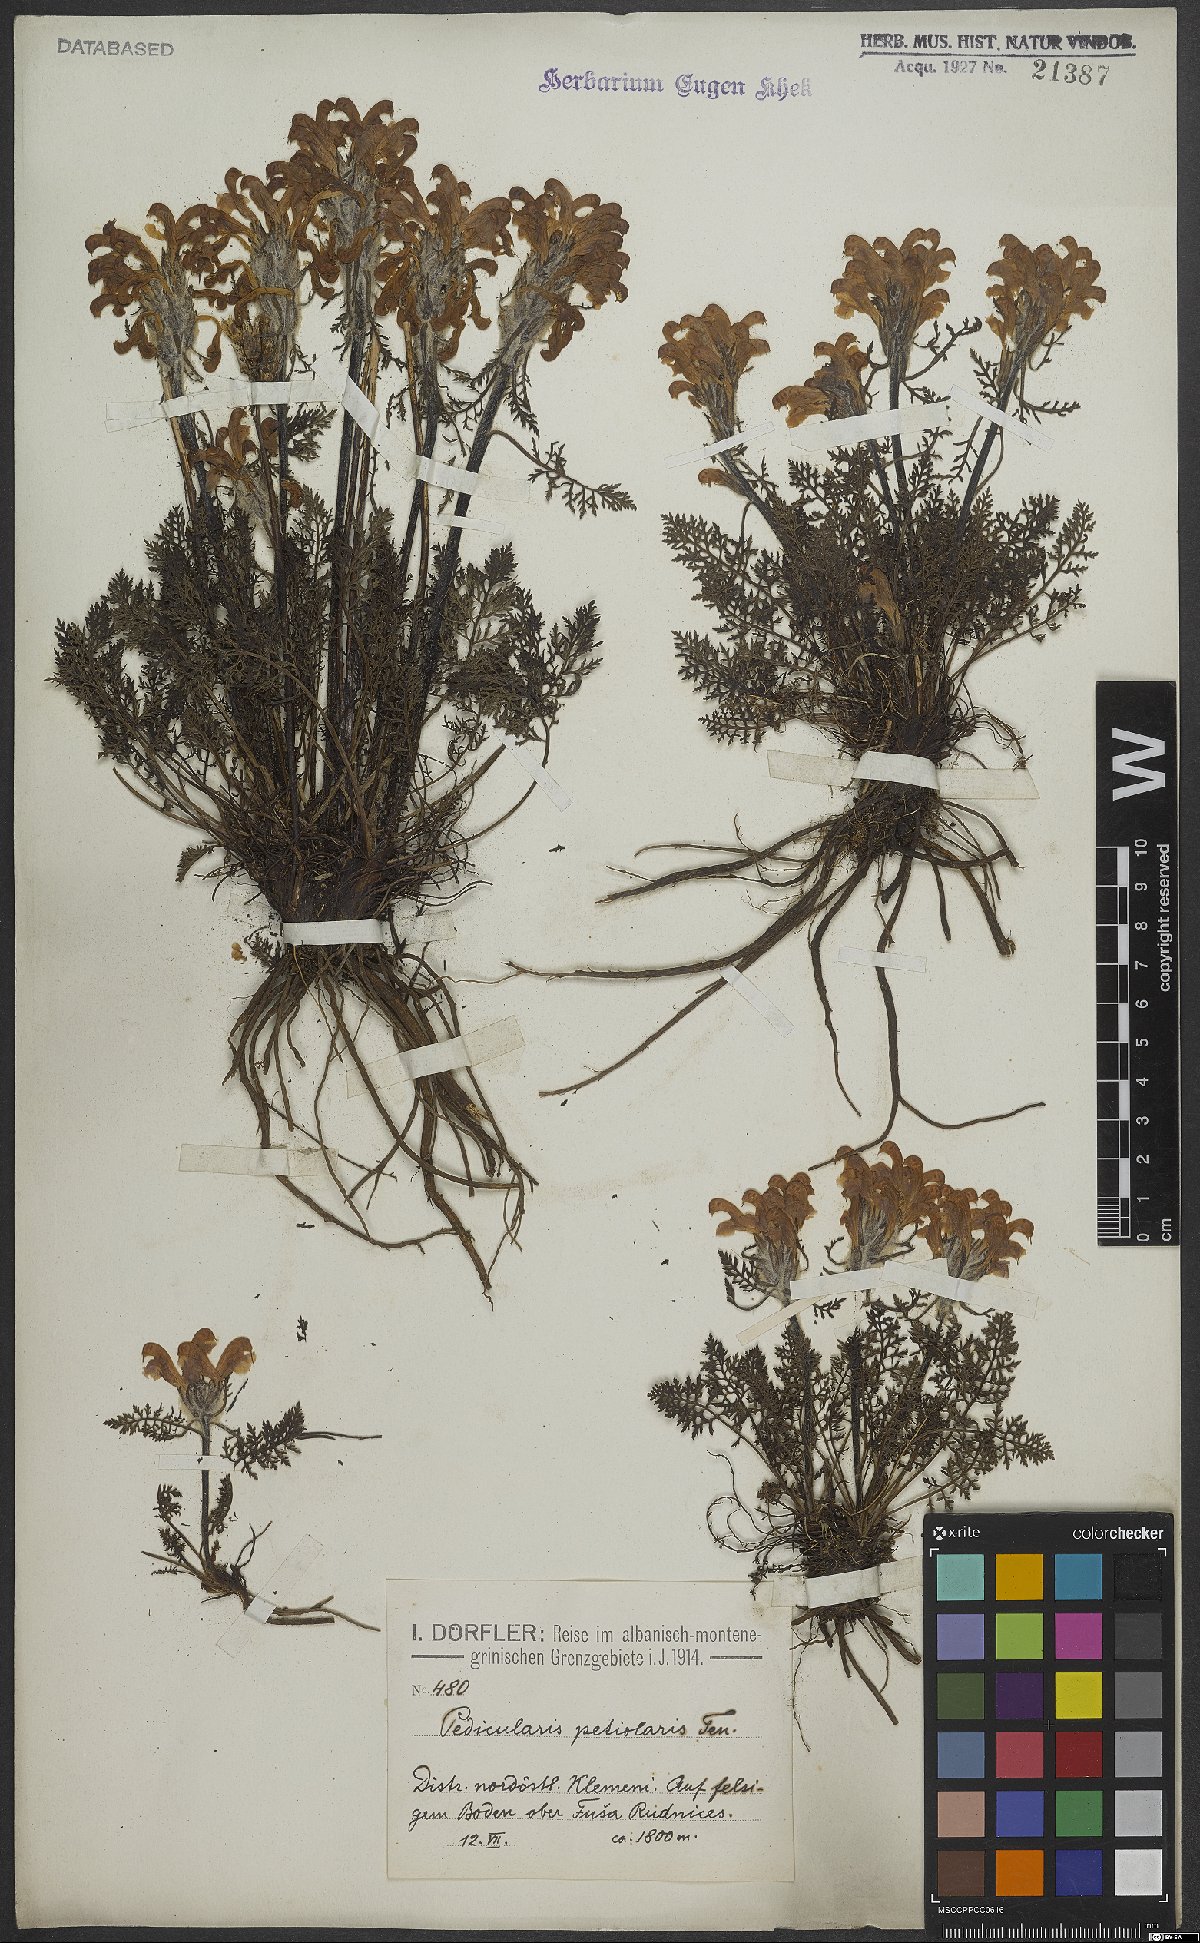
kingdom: Plantae
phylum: Tracheophyta
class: Magnoliopsida
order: Lamiales
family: Orobanchaceae
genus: Pedicularis
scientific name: Pedicularis petiolaris
